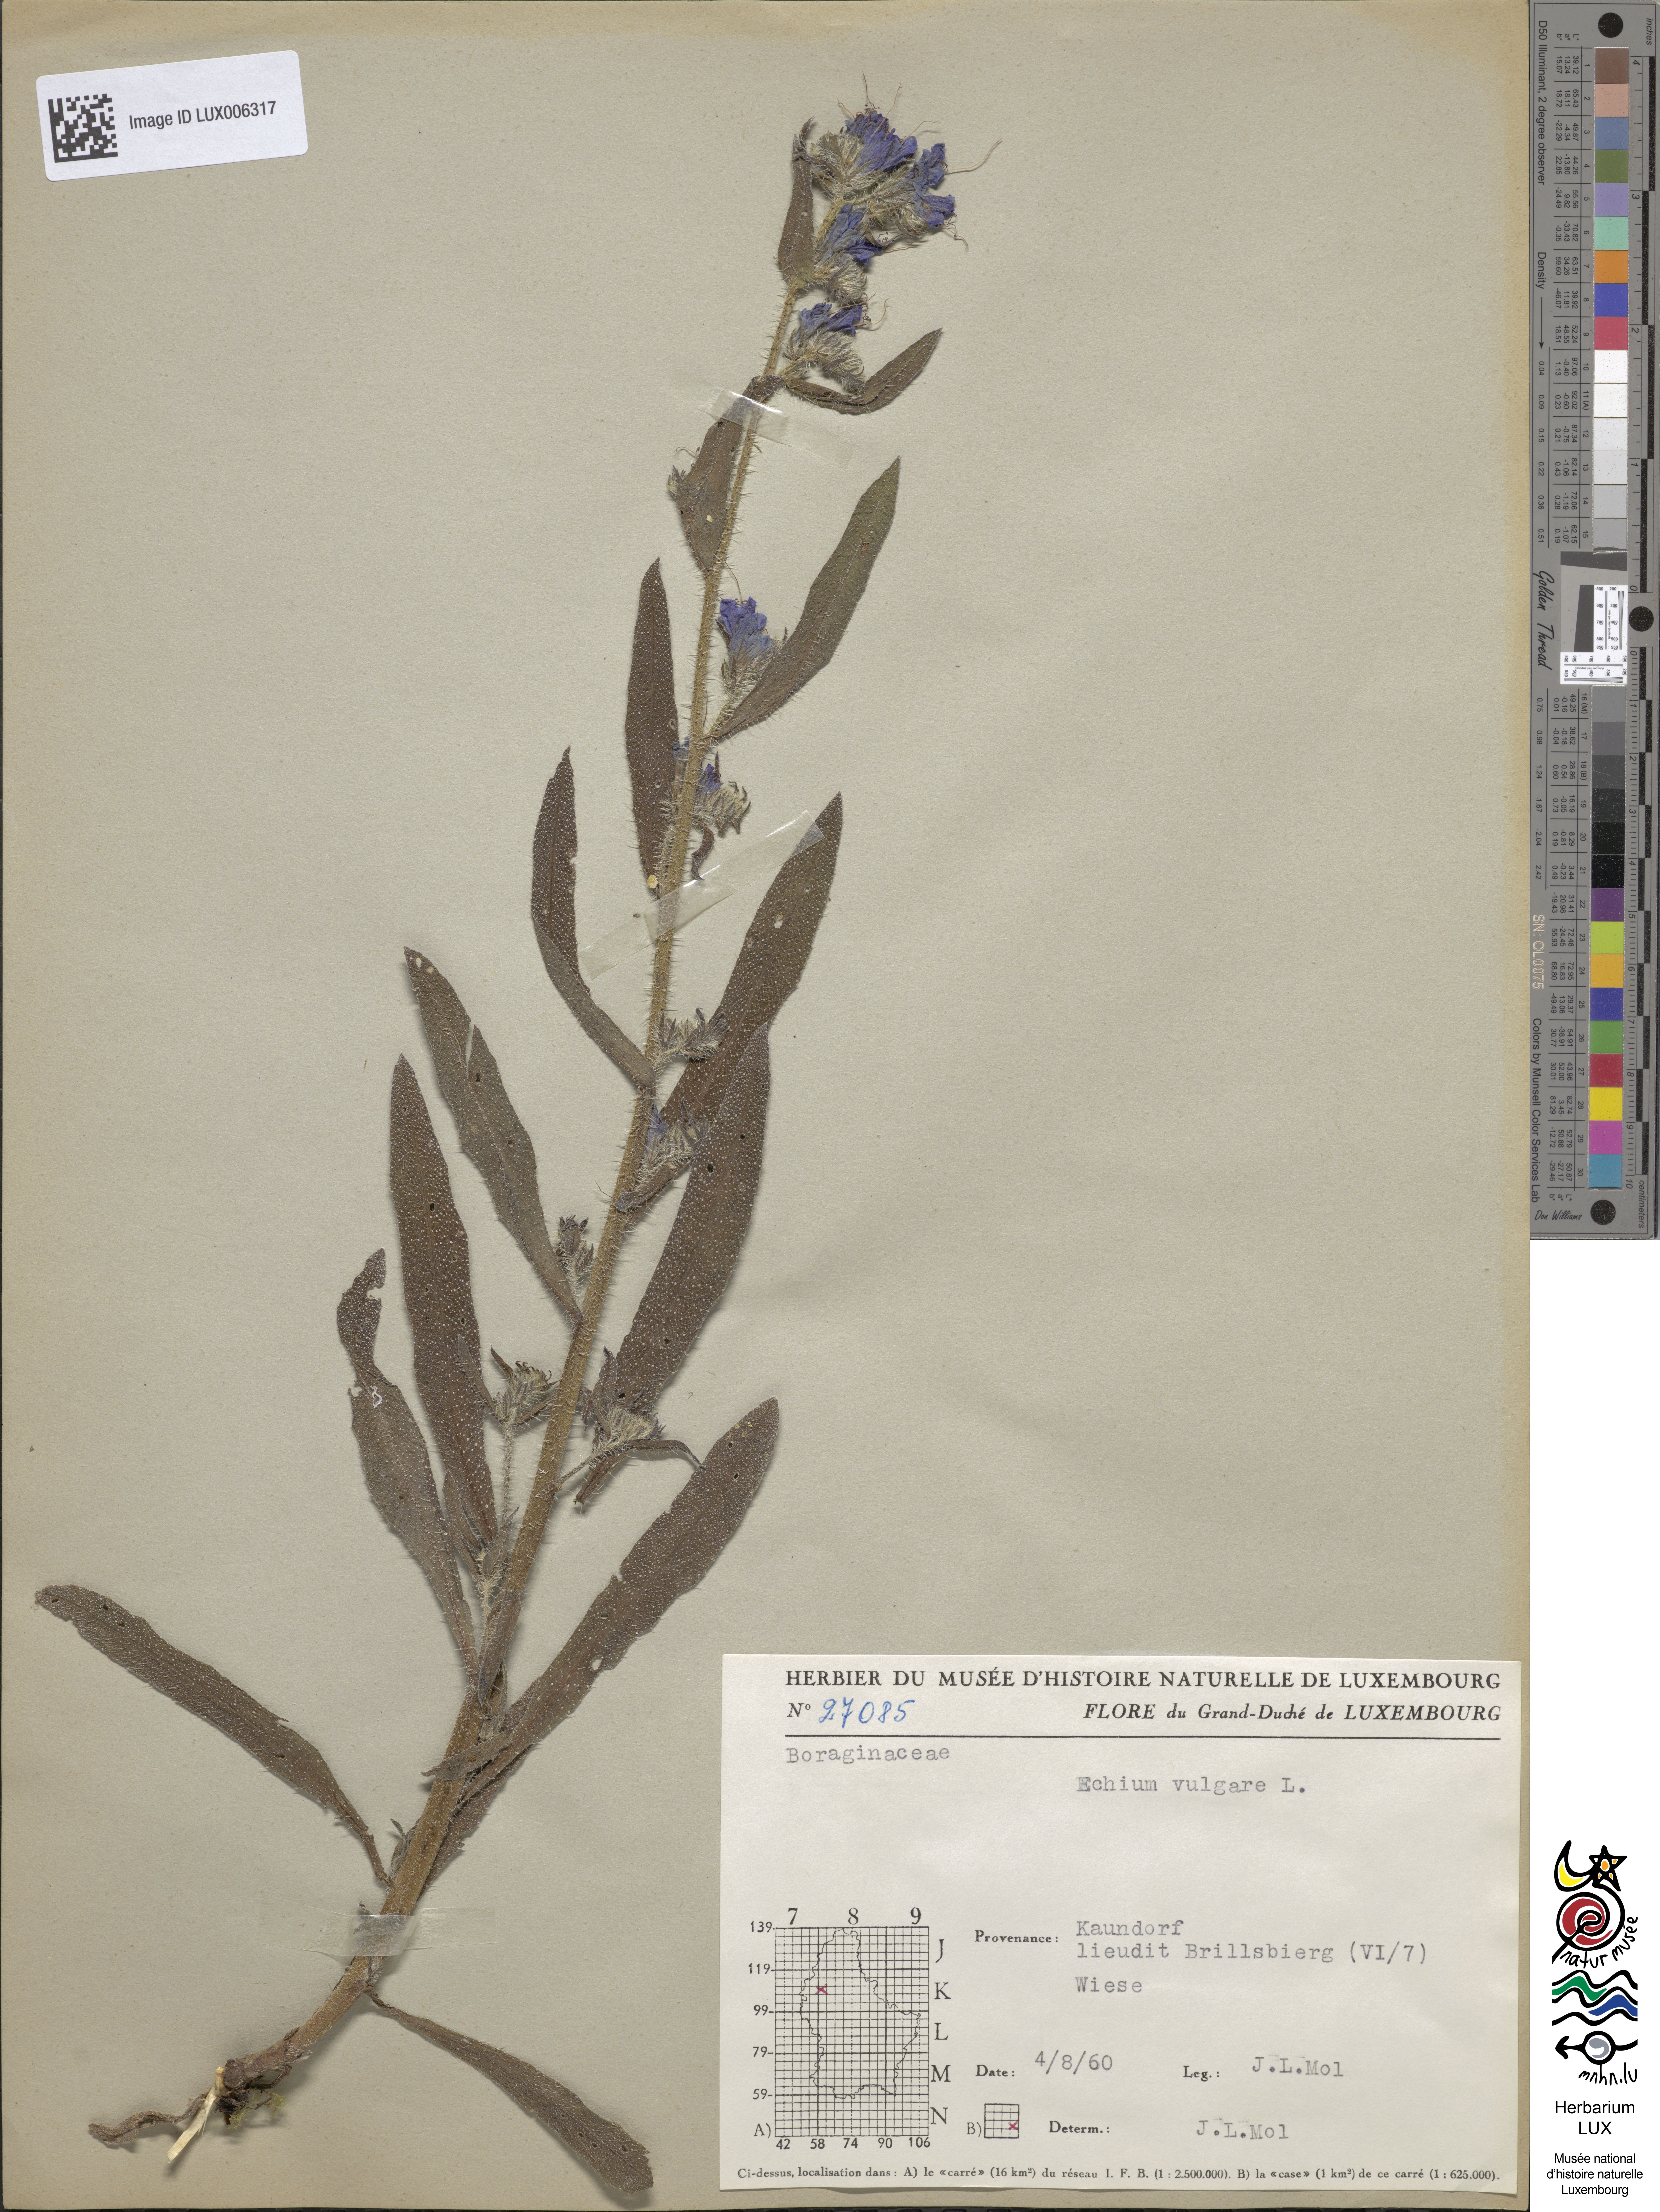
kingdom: Plantae
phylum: Tracheophyta
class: Magnoliopsida
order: Boraginales
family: Boraginaceae
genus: Echium
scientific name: Echium vulgare
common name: Common viper's bugloss
